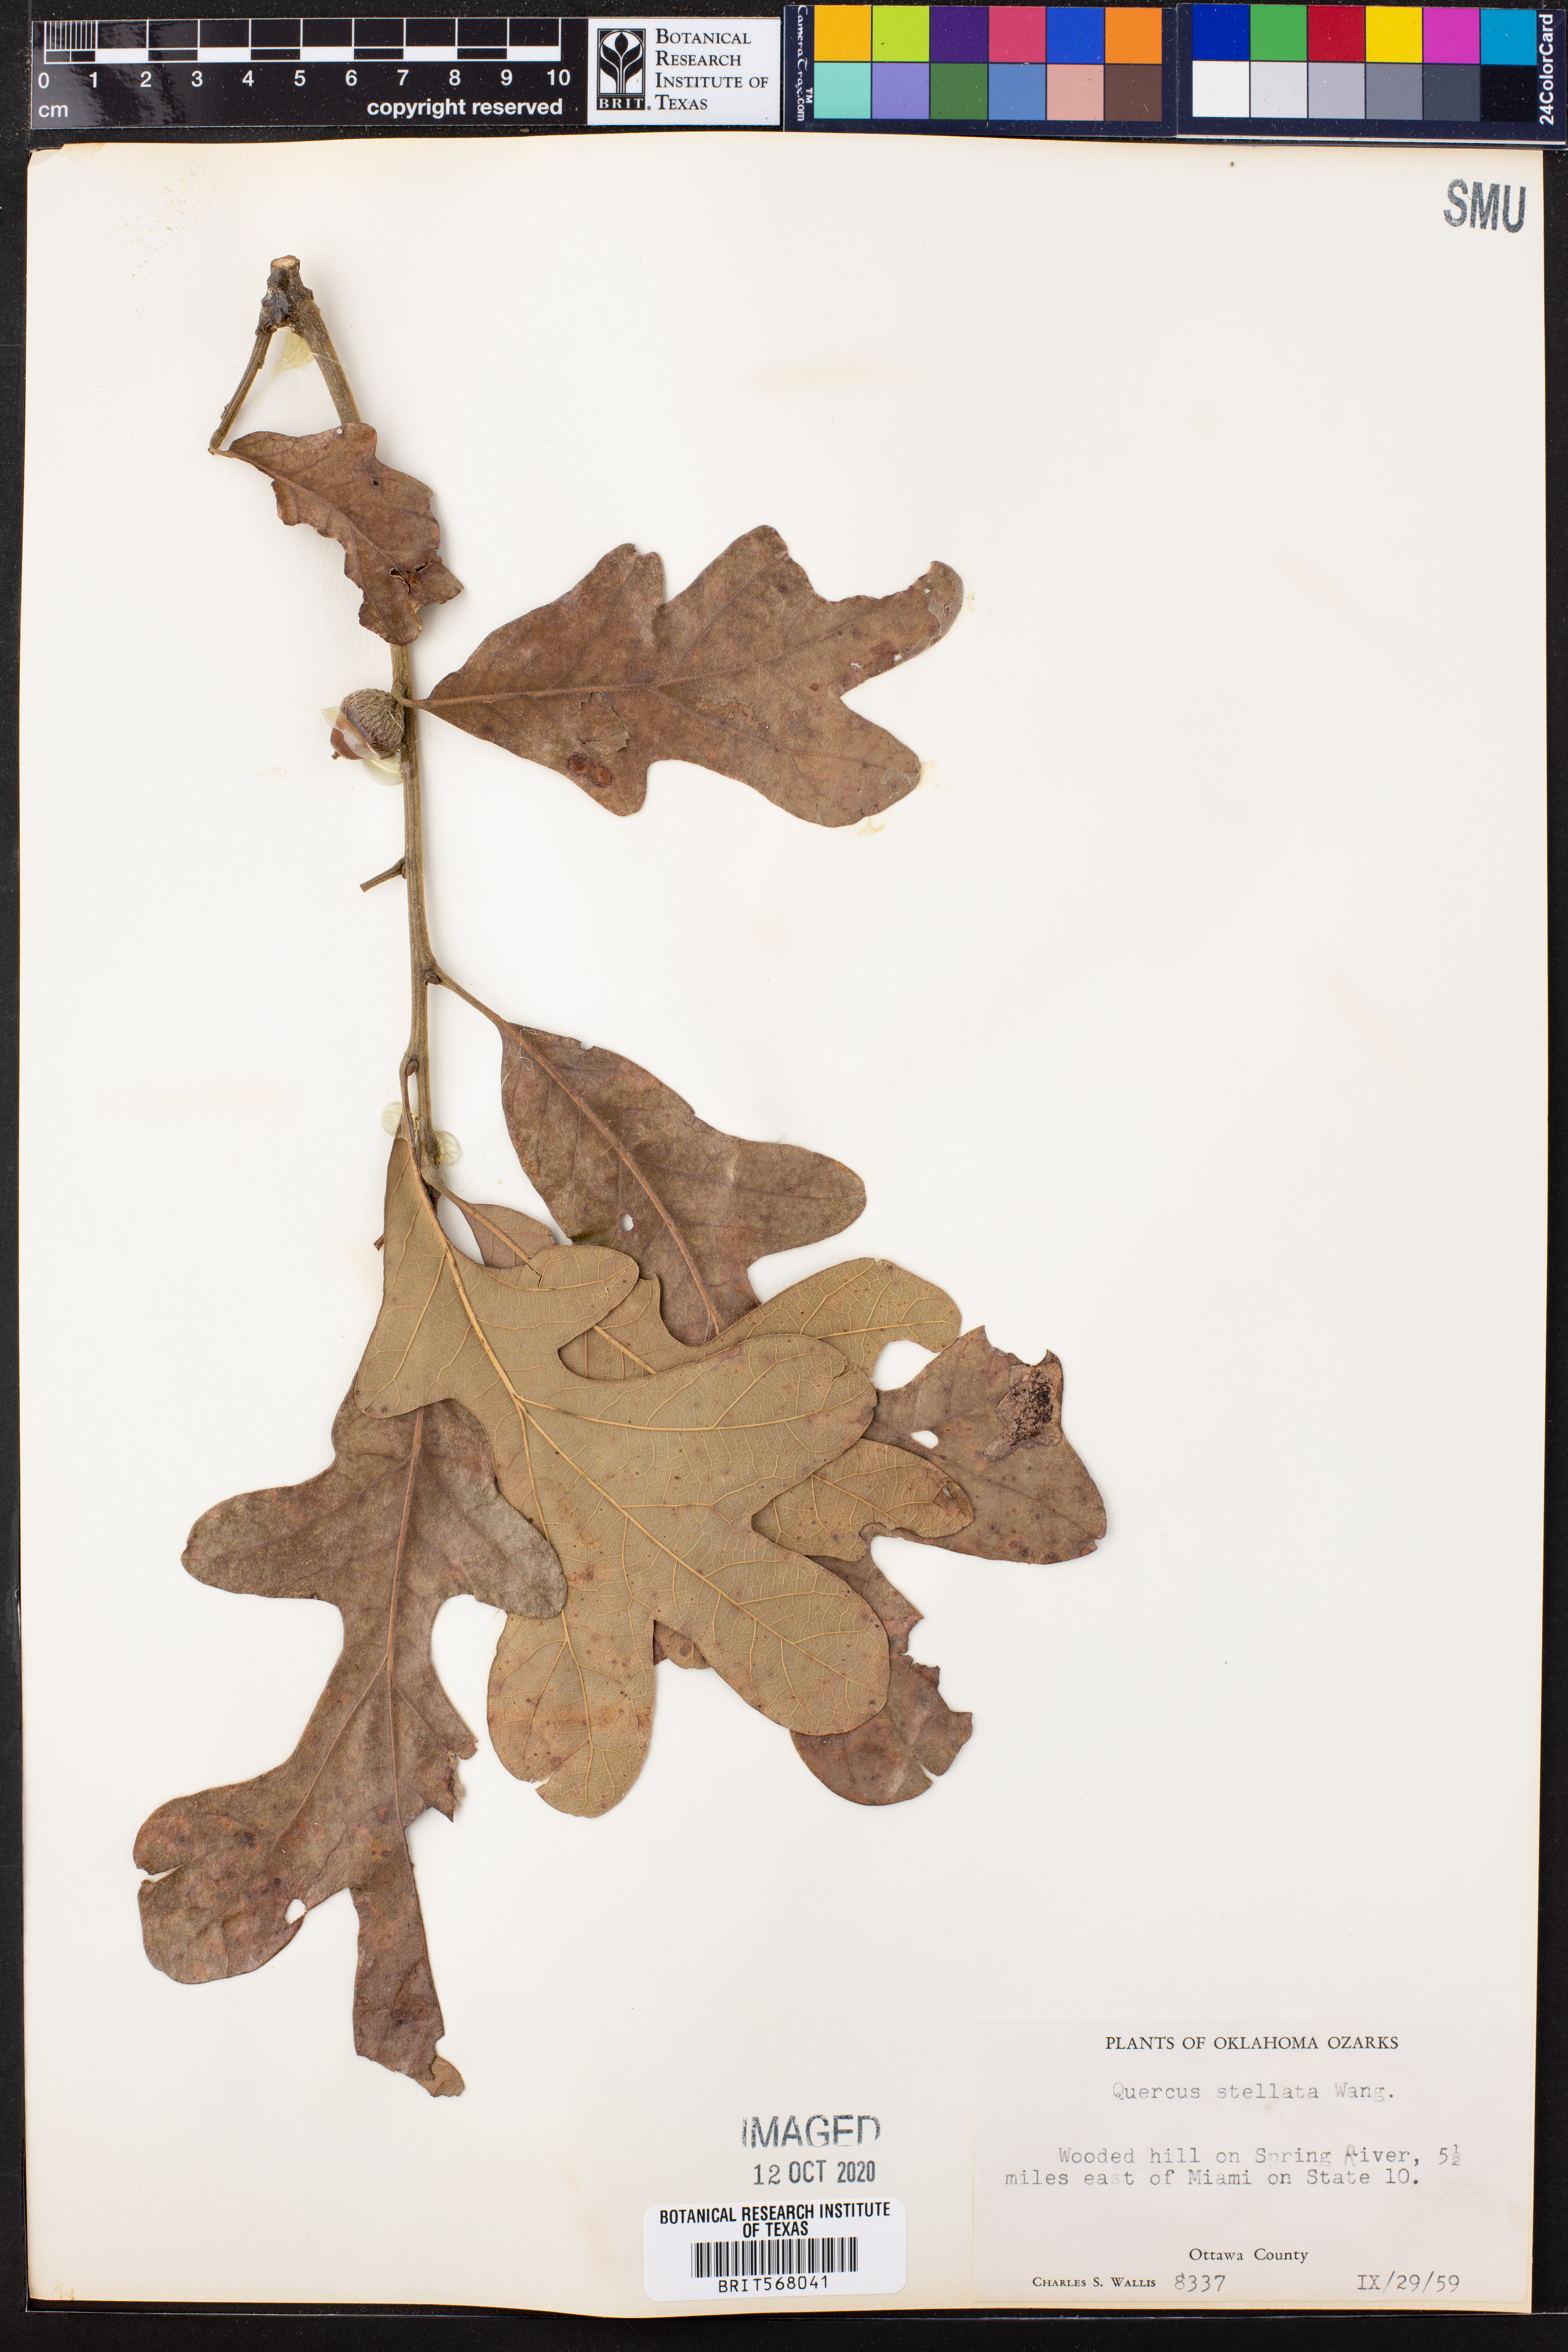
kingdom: Plantae
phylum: Tracheophyta
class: Magnoliopsida
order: Fagales
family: Fagaceae
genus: Quercus
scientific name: Quercus stellata
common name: Post oak
